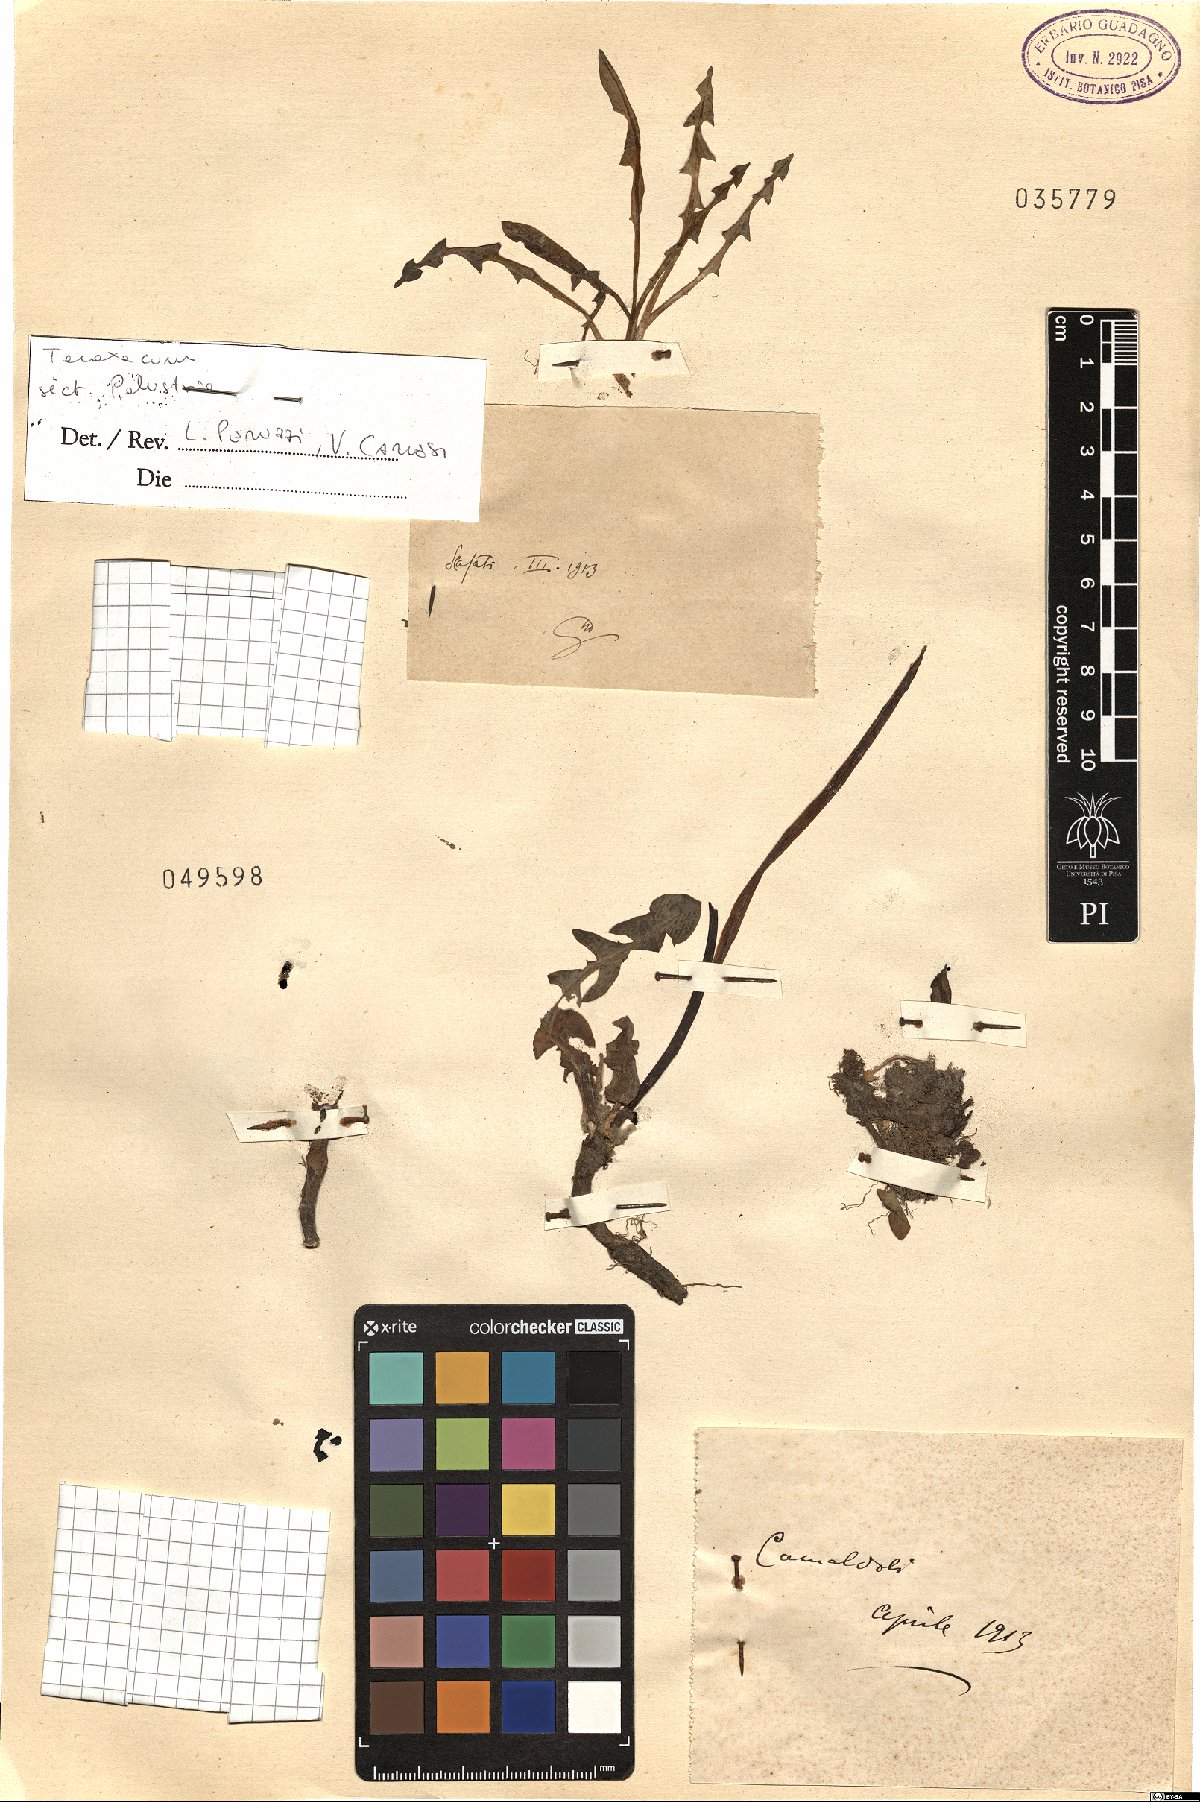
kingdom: Plantae
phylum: Tracheophyta
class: Magnoliopsida
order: Asterales
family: Asteraceae
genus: Taraxacum
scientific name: Taraxacum
